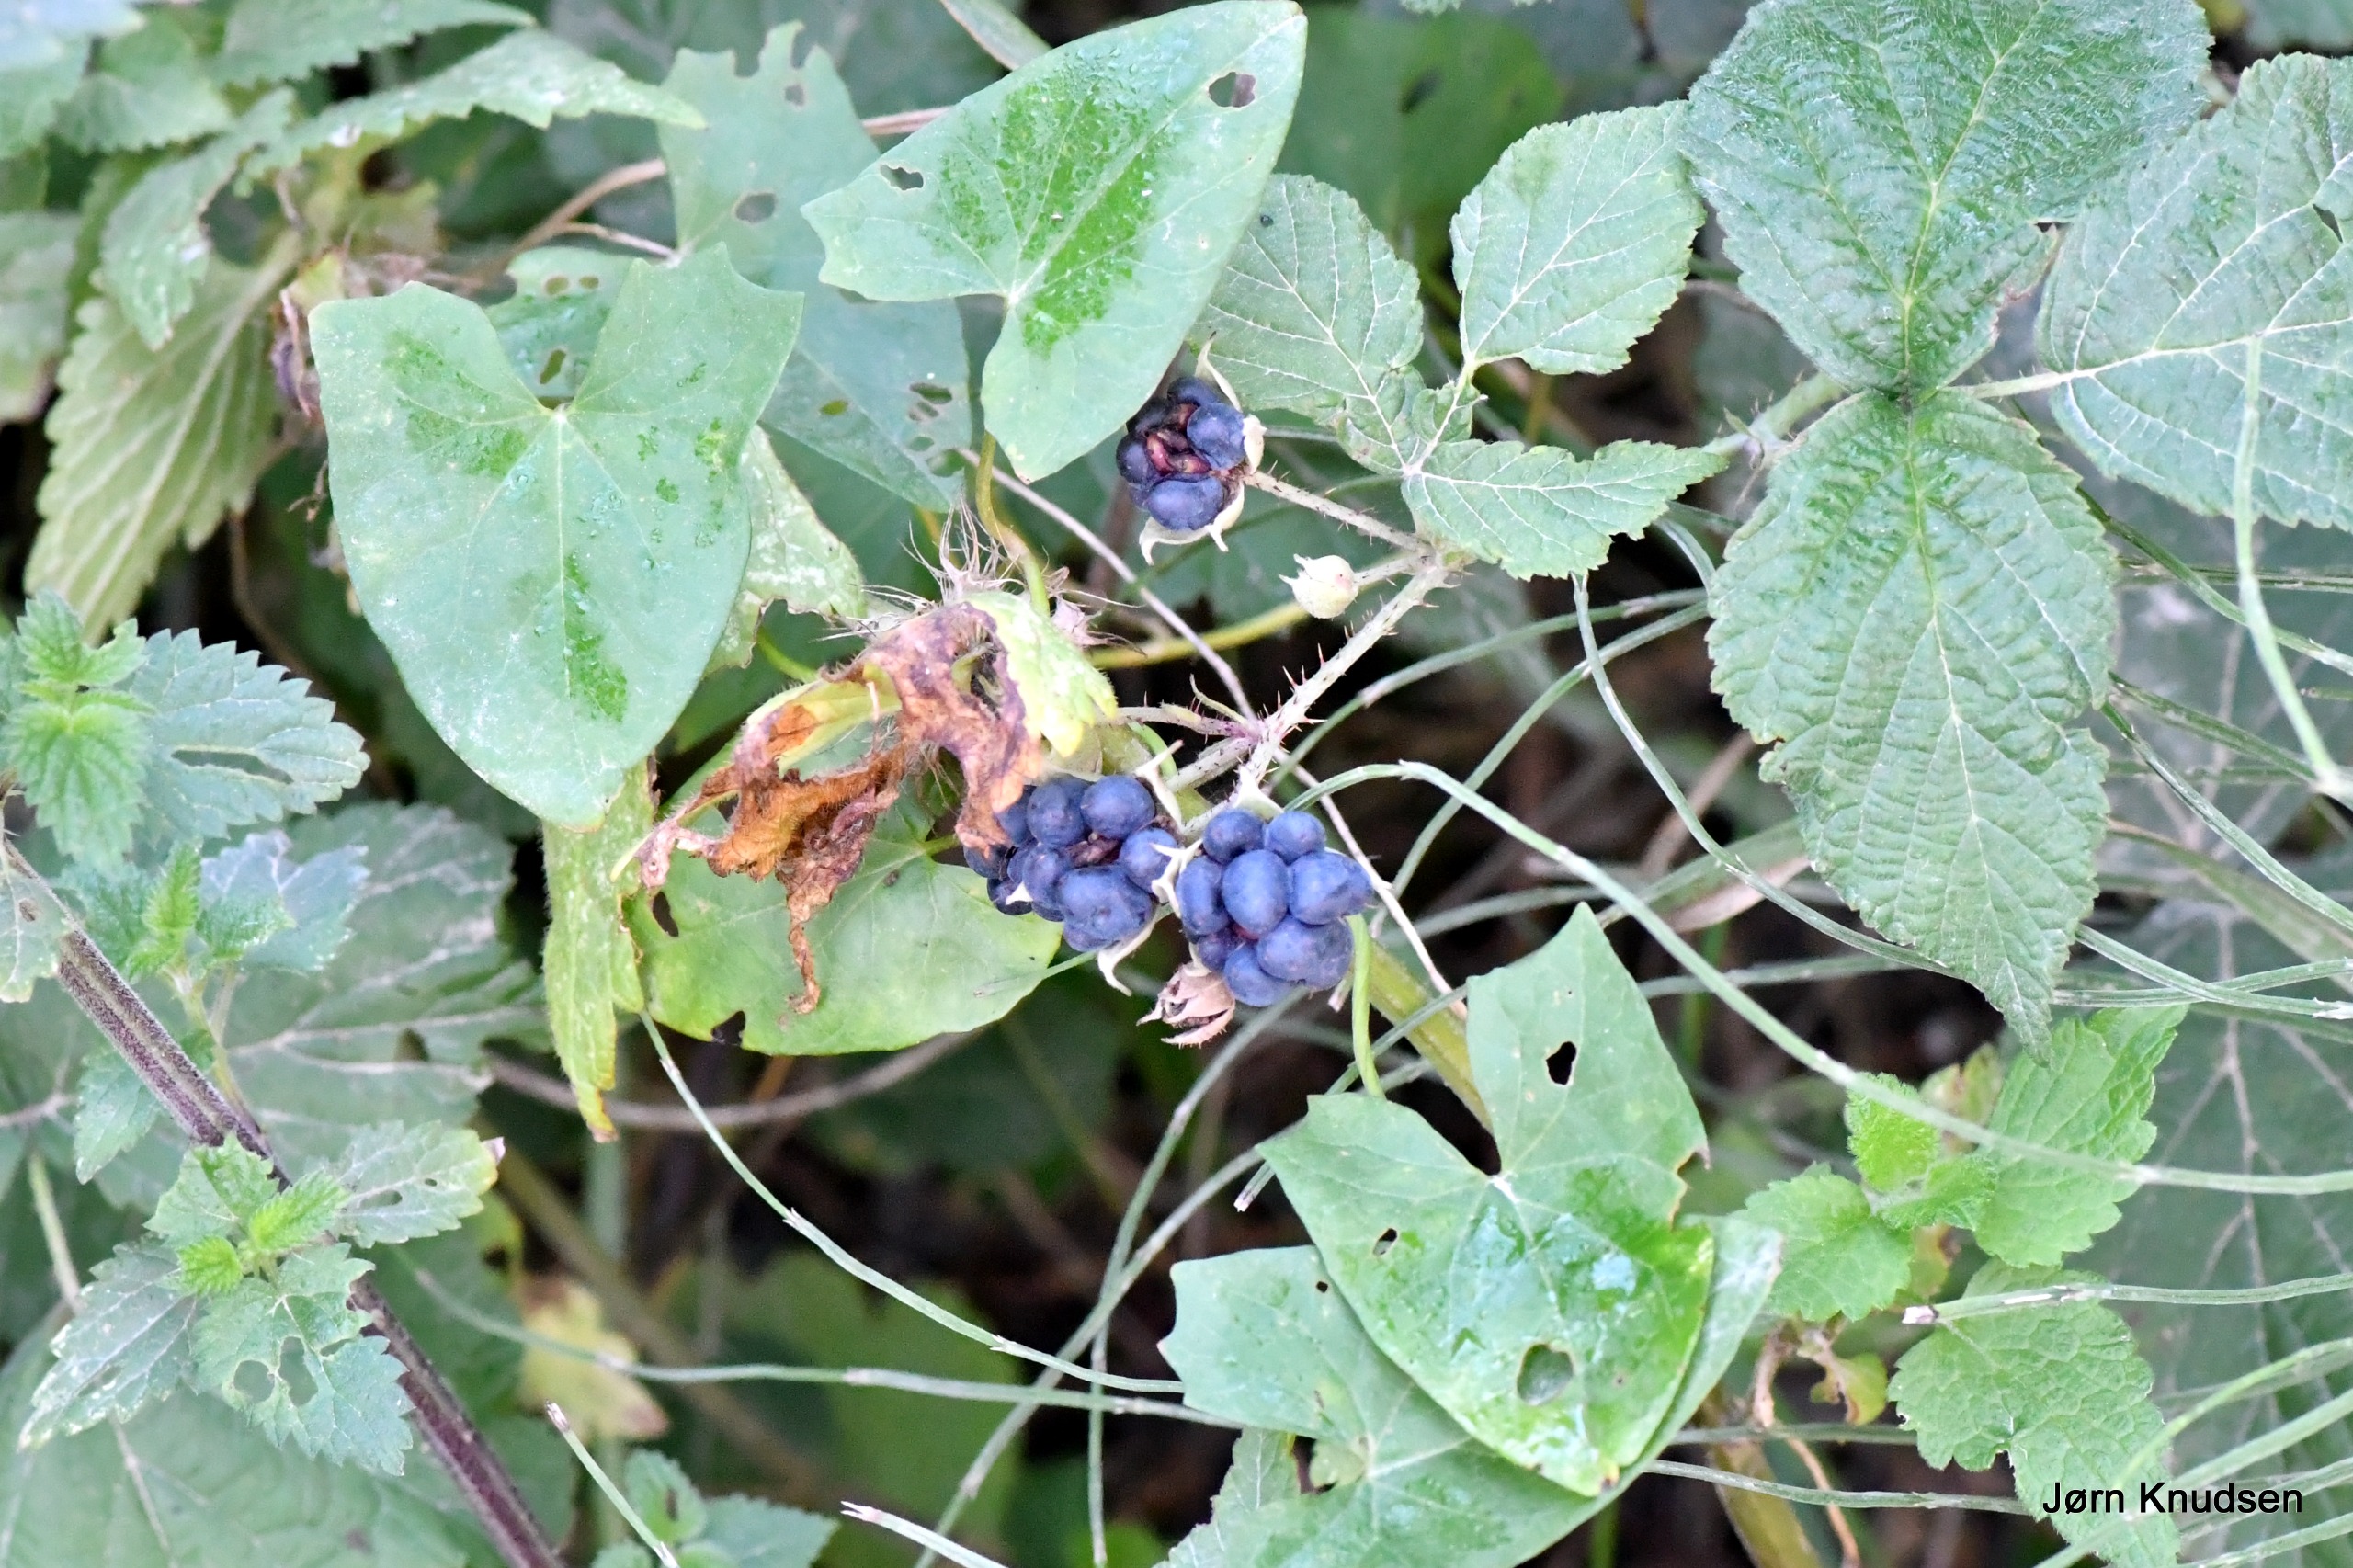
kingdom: Plantae
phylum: Tracheophyta
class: Magnoliopsida
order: Rosales
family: Rosaceae
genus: Rubus
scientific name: Rubus caesius
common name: Korbær
